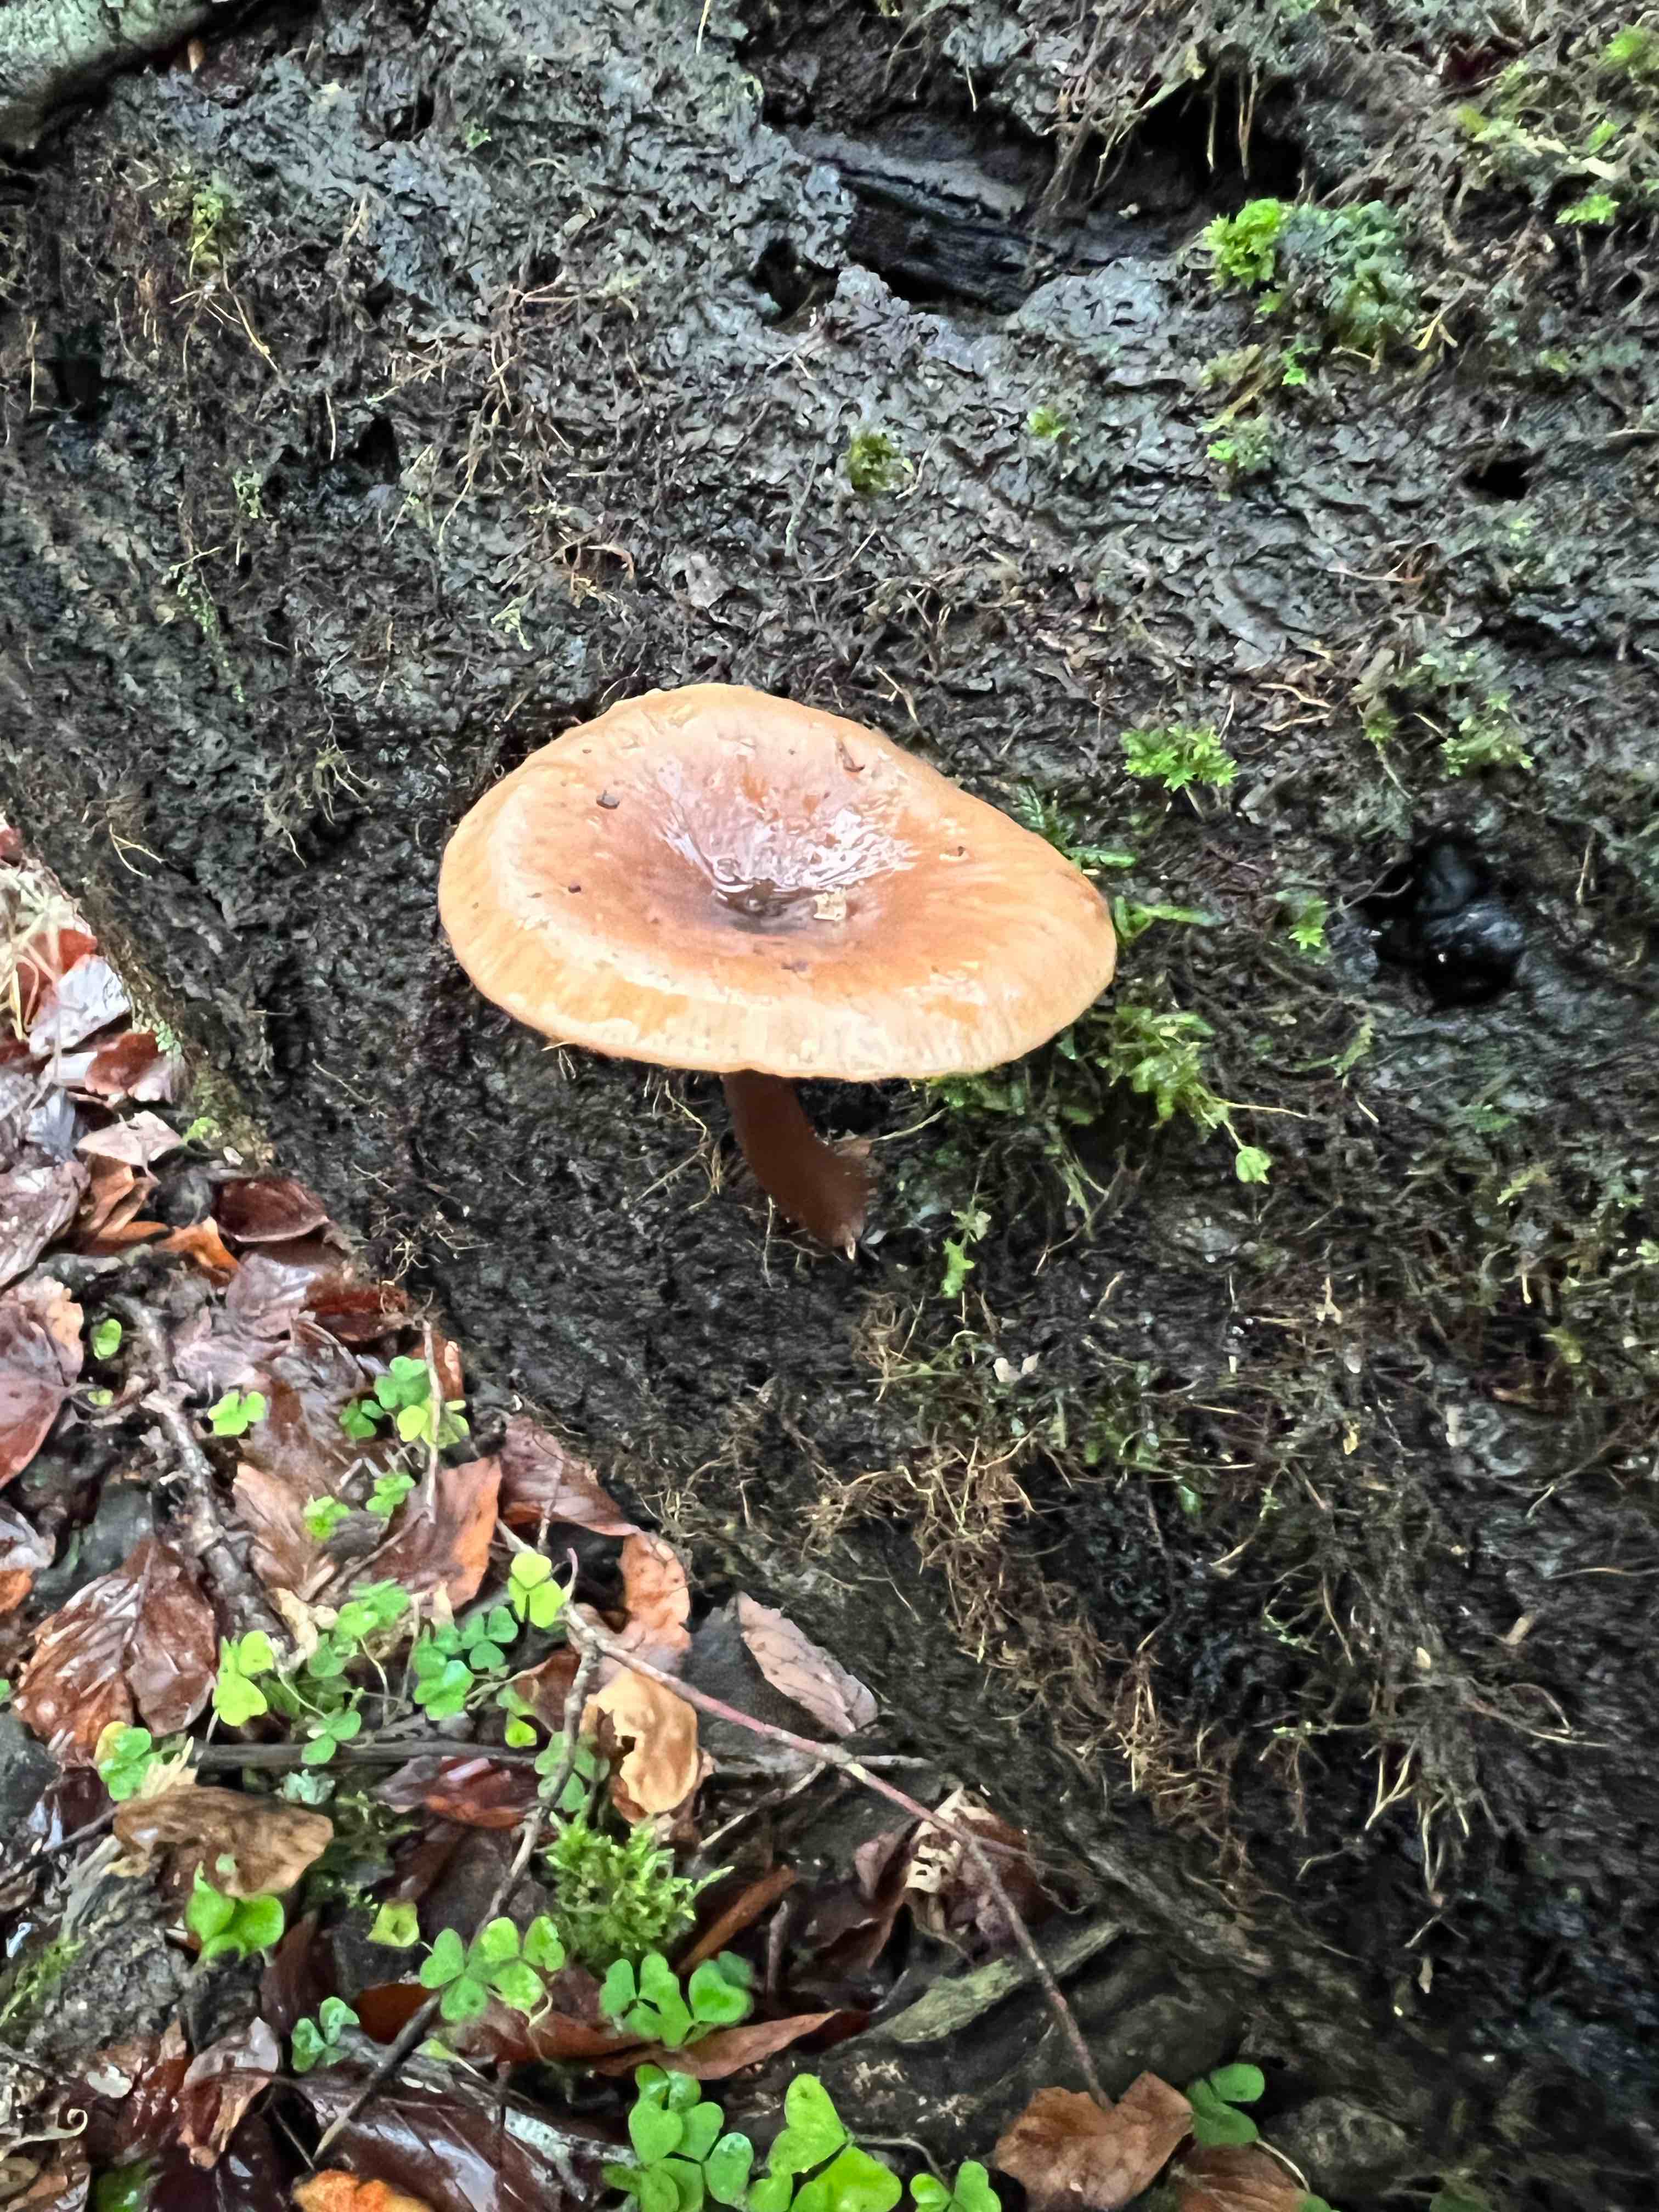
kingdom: Fungi
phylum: Basidiomycota
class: Agaricomycetes
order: Agaricales
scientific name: Agaricales
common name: champignonordenen
